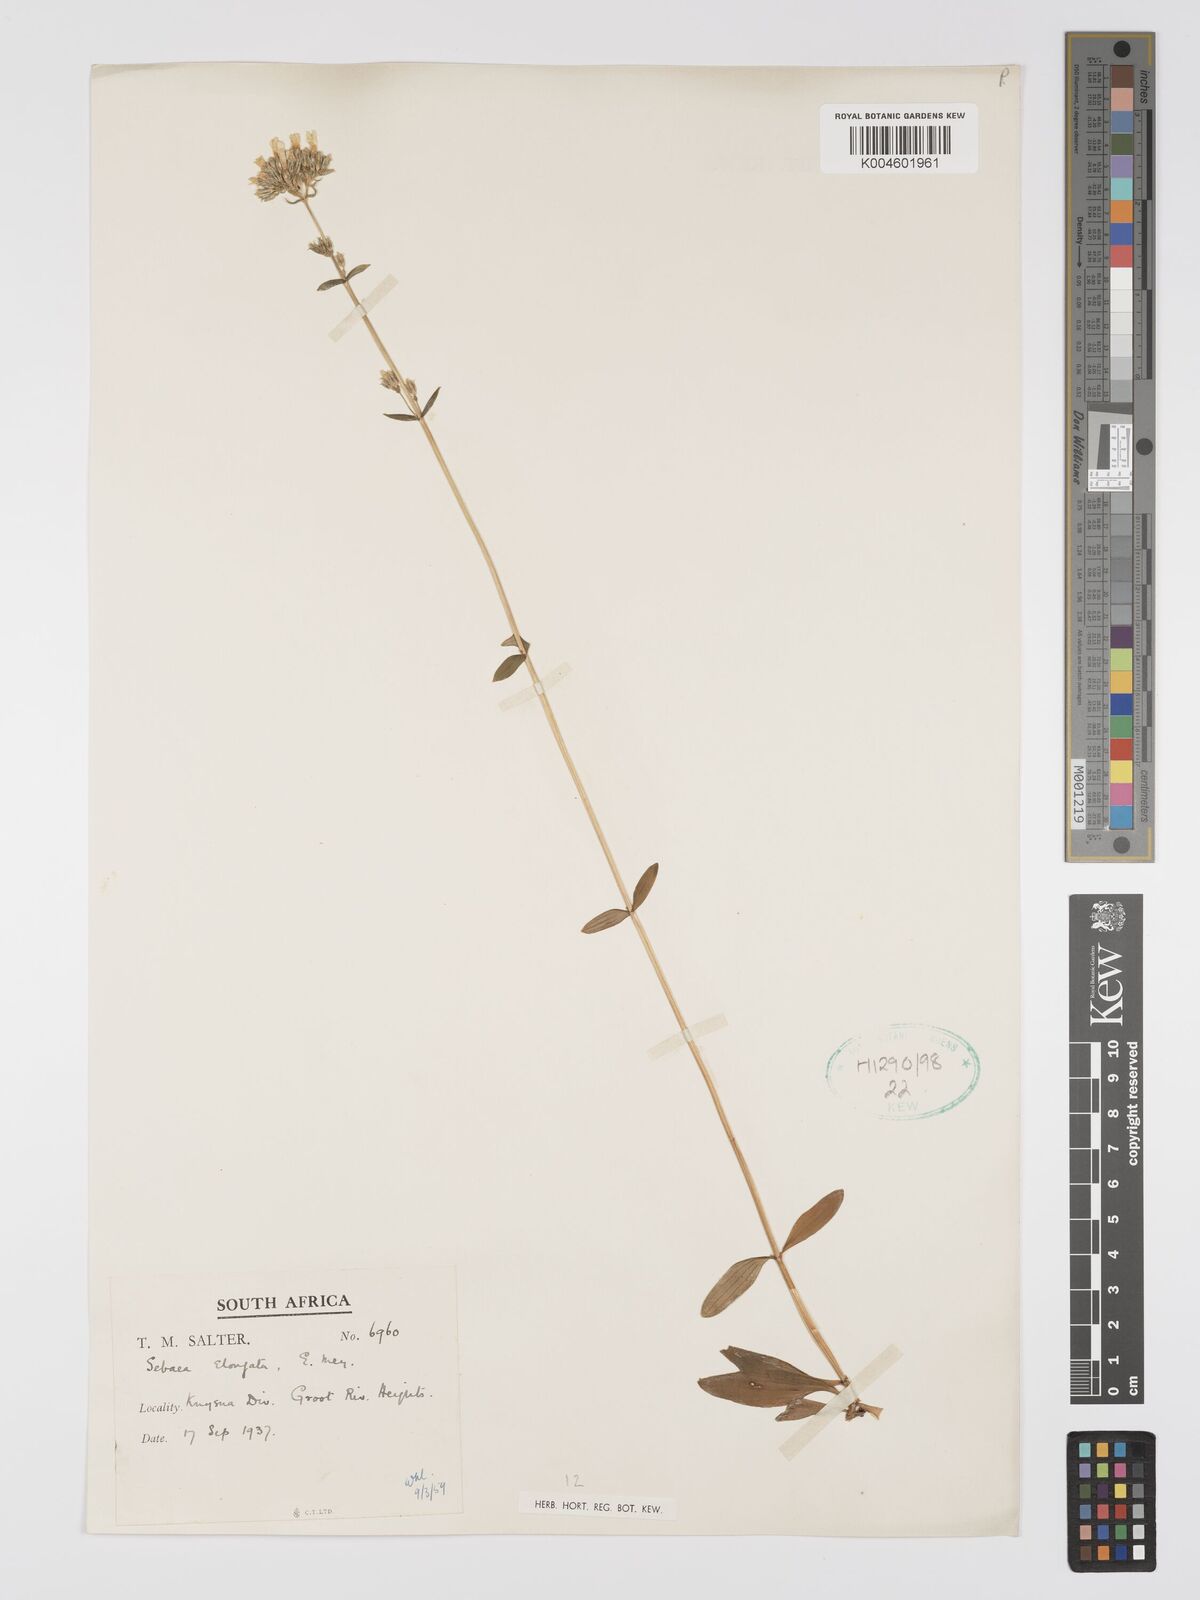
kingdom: Plantae
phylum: Tracheophyta
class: Magnoliopsida
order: Gentianales
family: Gentianaceae
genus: Sebaea
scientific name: Sebaea elongata
